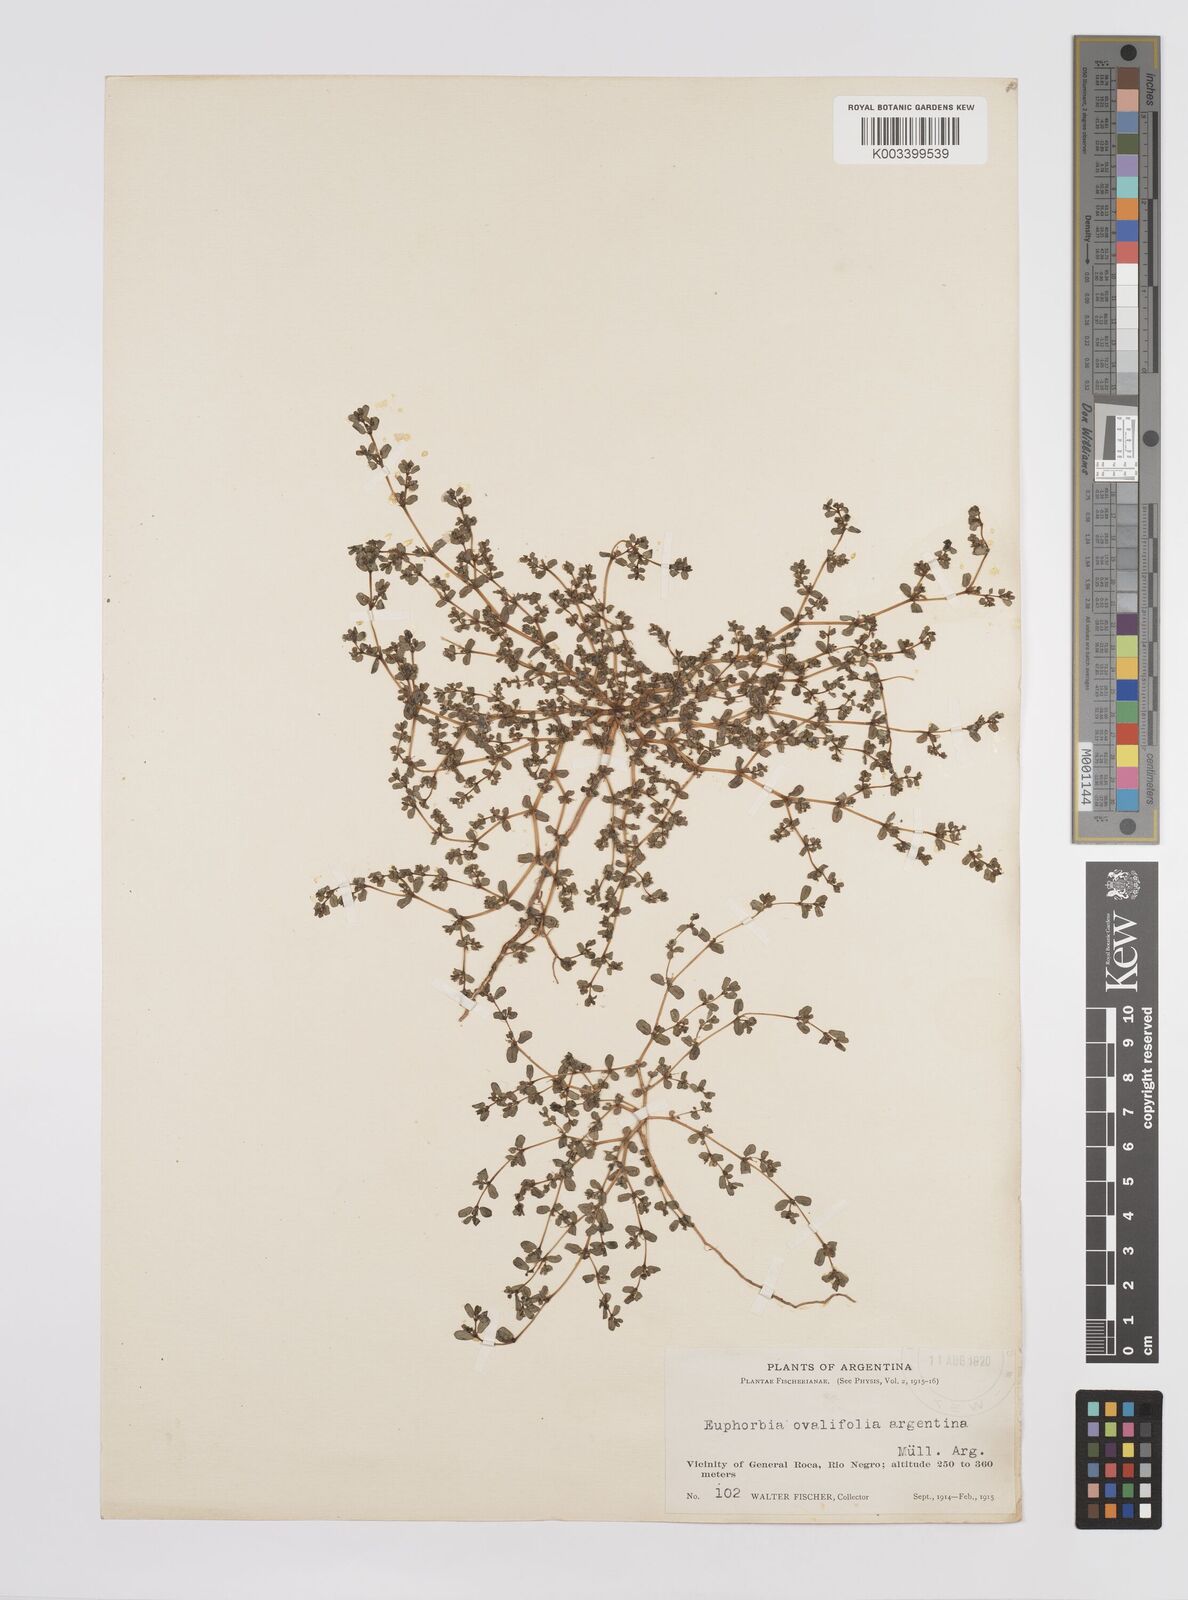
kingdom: Plantae
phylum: Tracheophyta
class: Magnoliopsida
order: Malpighiales
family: Euphorbiaceae
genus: Euphorbia
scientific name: Euphorbia
